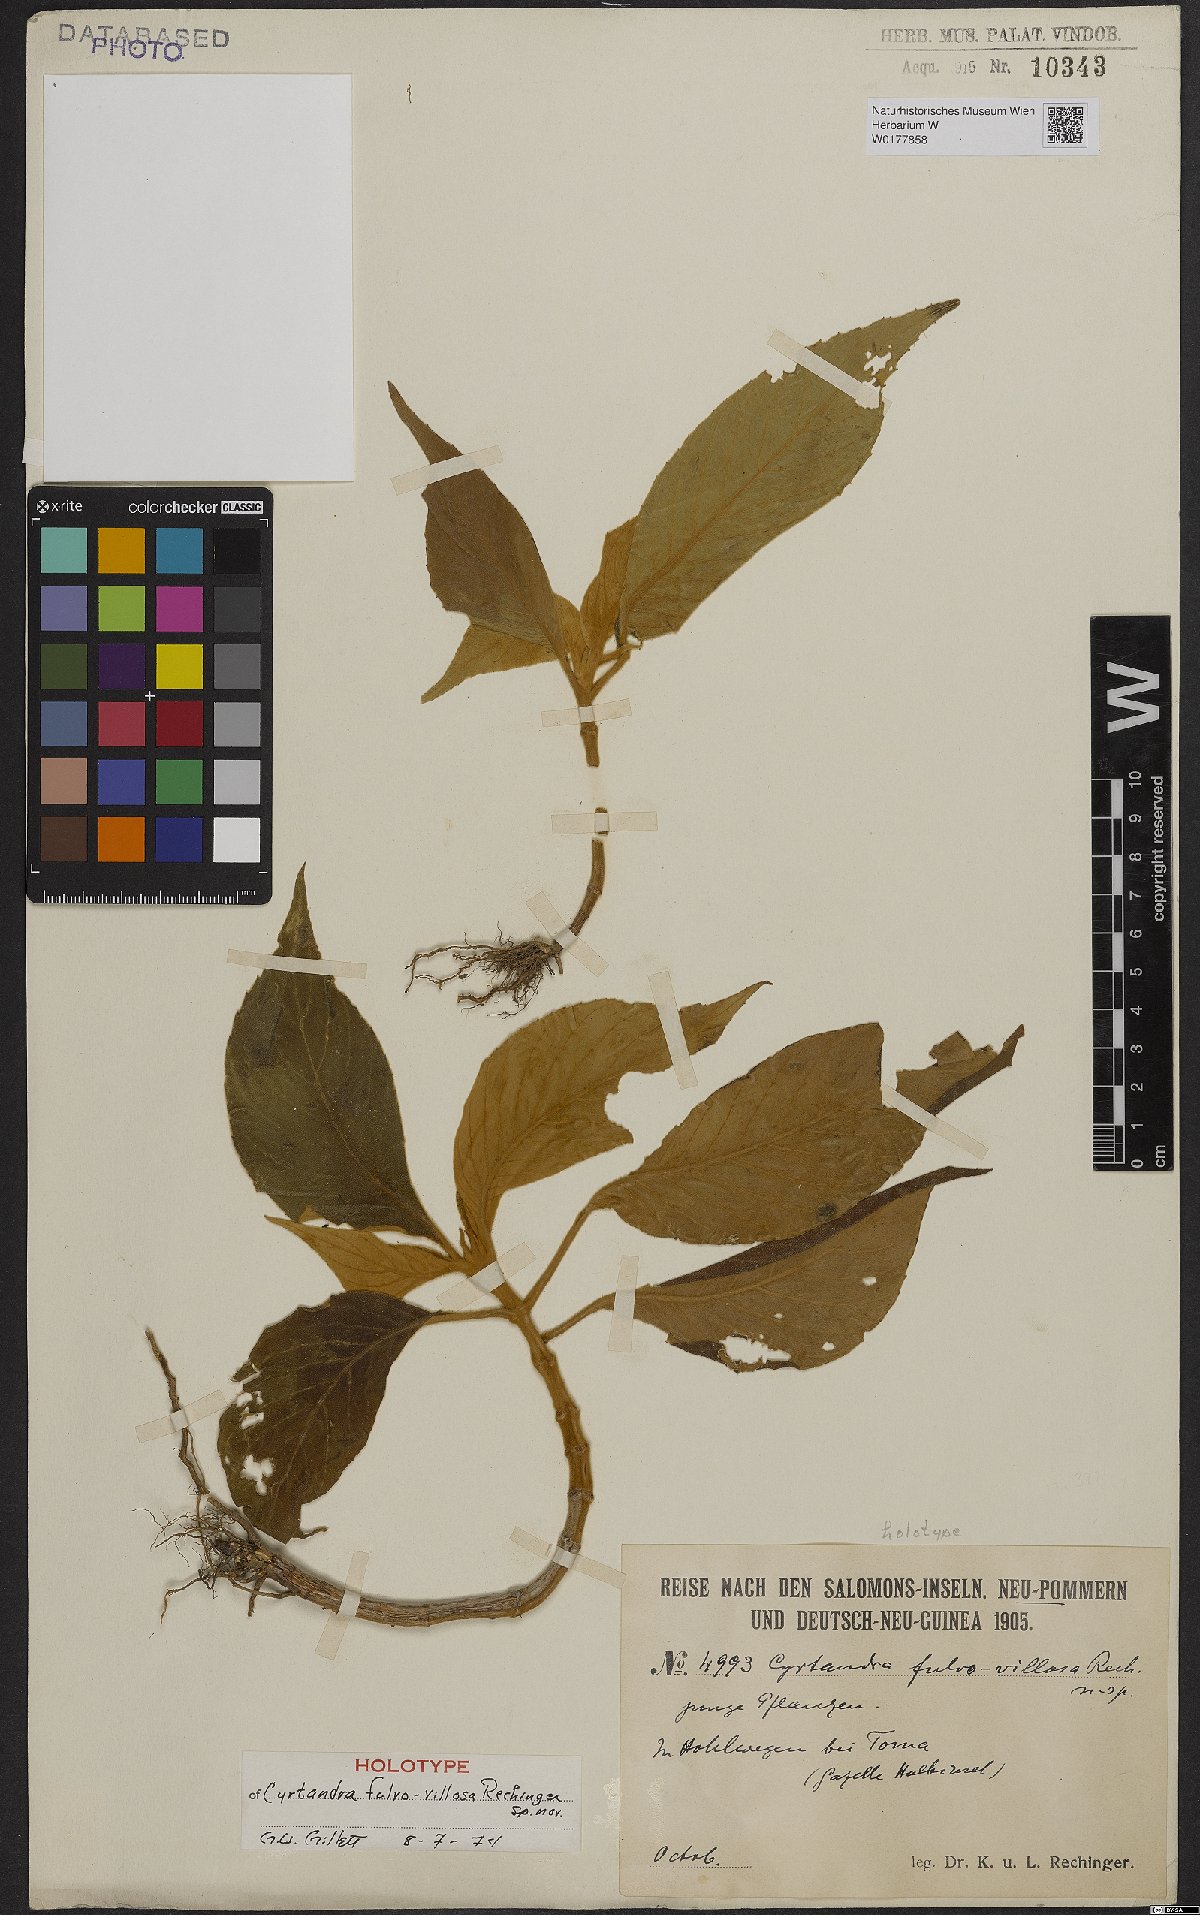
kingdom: Plantae
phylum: Tracheophyta
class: Magnoliopsida
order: Lamiales
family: Gesneriaceae
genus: Cyrtandra
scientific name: Cyrtandra fulvovillosa
